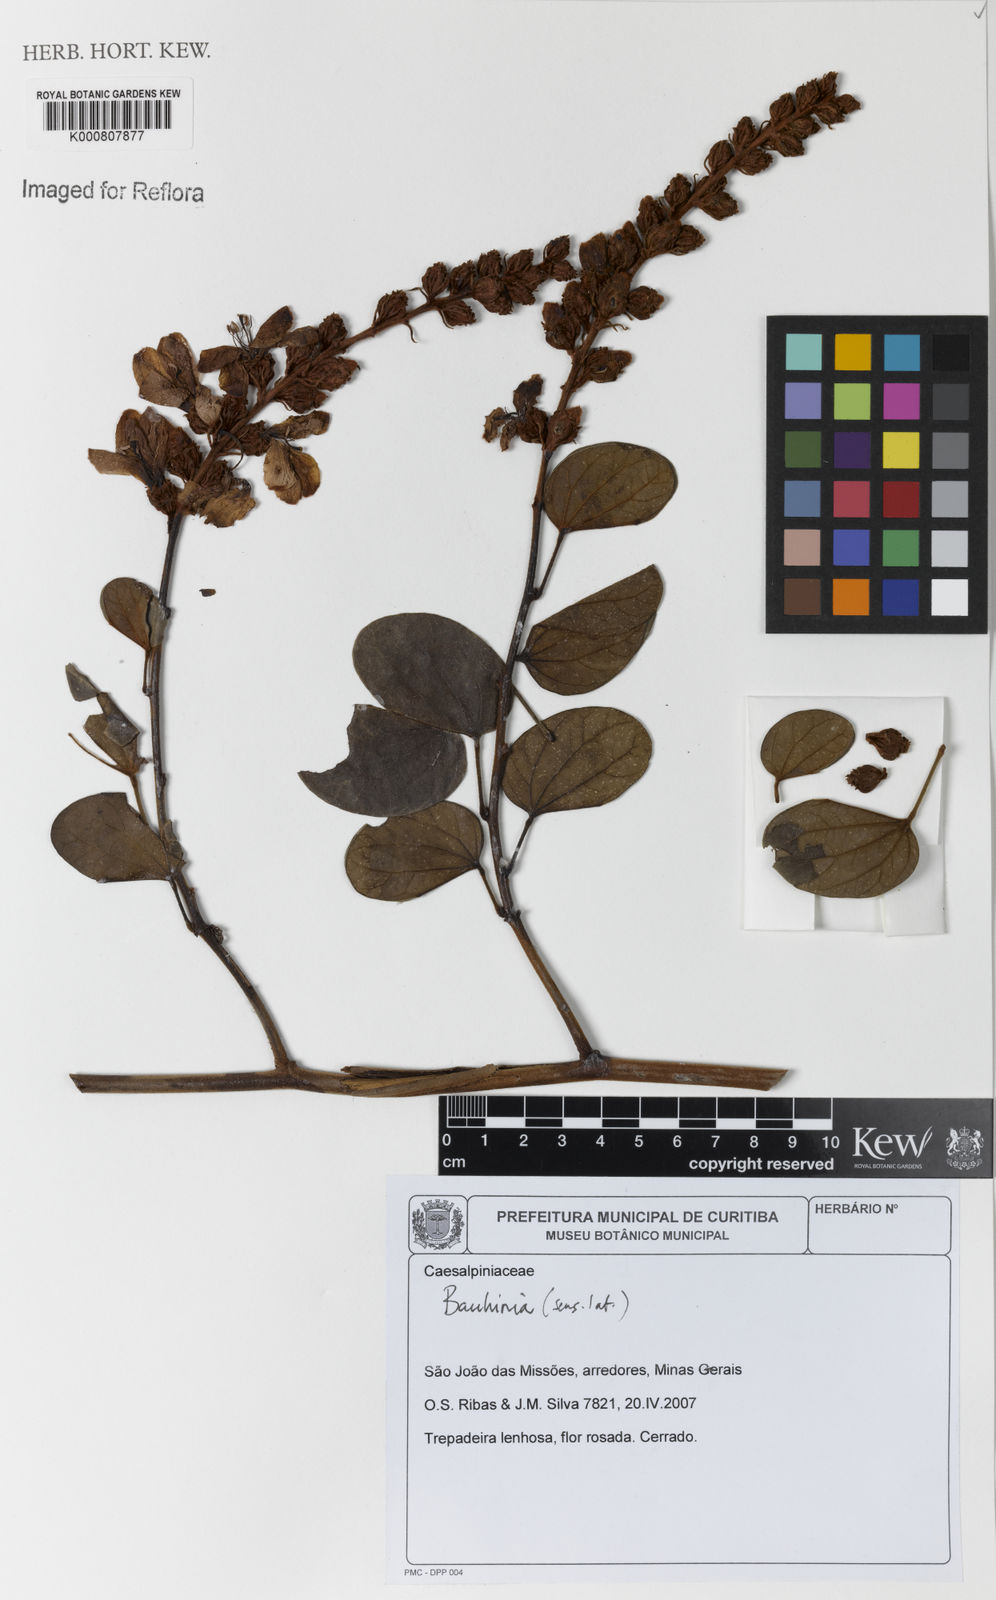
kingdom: Plantae
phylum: Tracheophyta
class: Magnoliopsida
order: Fabales
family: Fabaceae
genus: Schnella
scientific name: Schnella trichosepala
